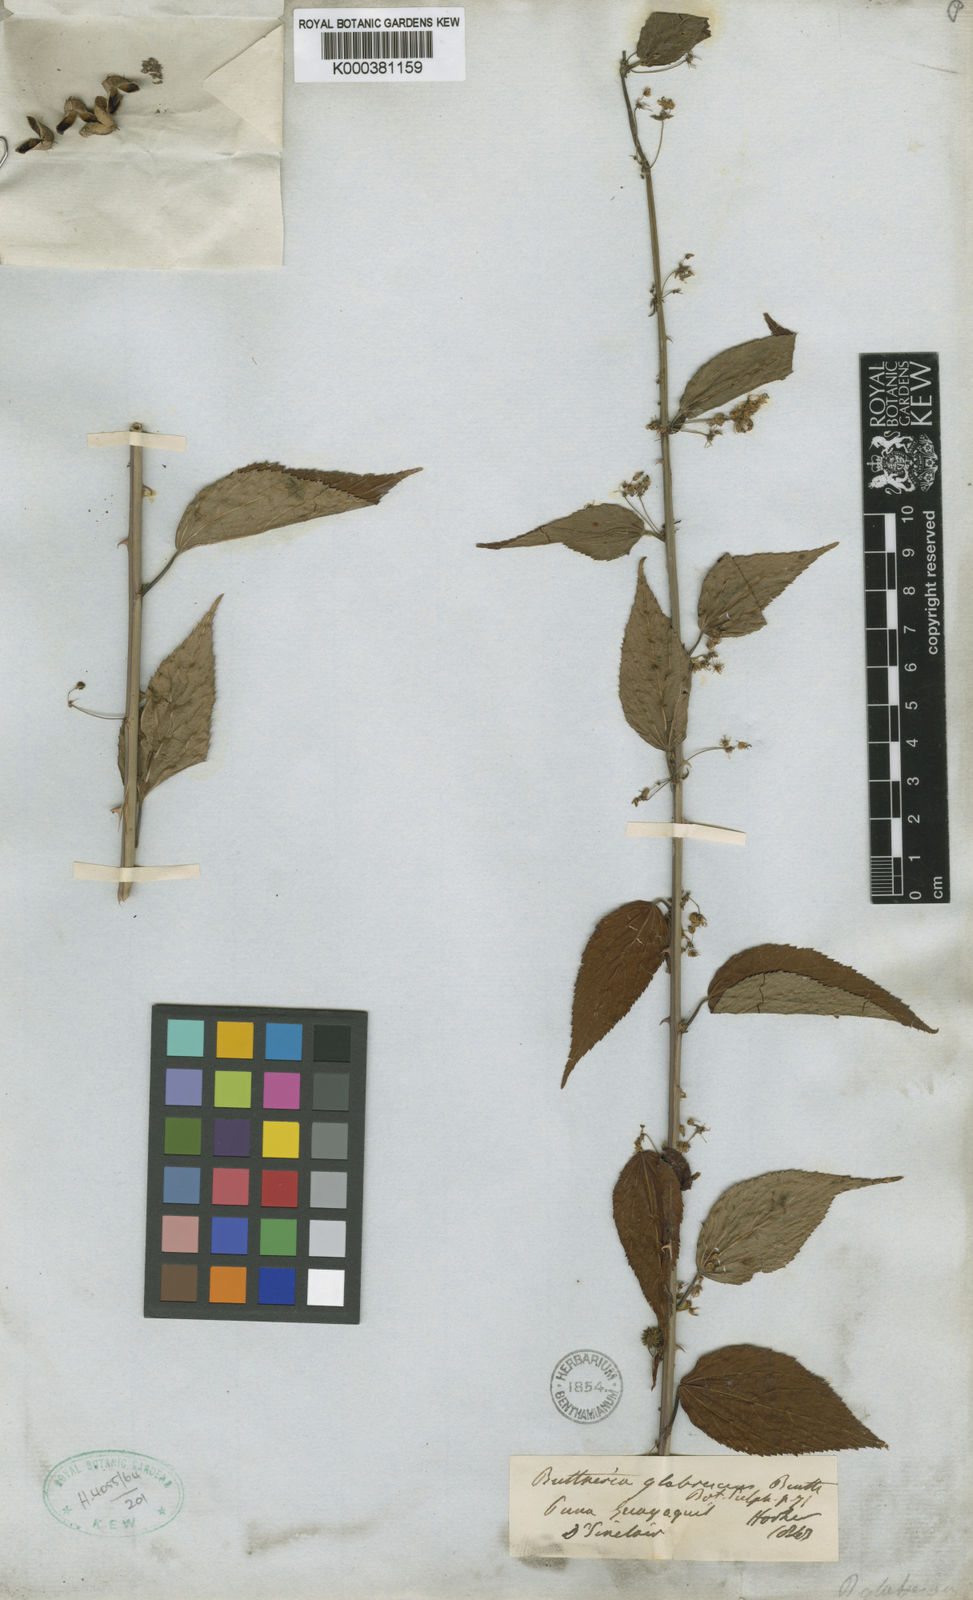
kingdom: Plantae
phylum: Tracheophyta
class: Magnoliopsida
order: Malvales
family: Malvaceae
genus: Byttneria
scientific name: Byttneria corchorifolia
